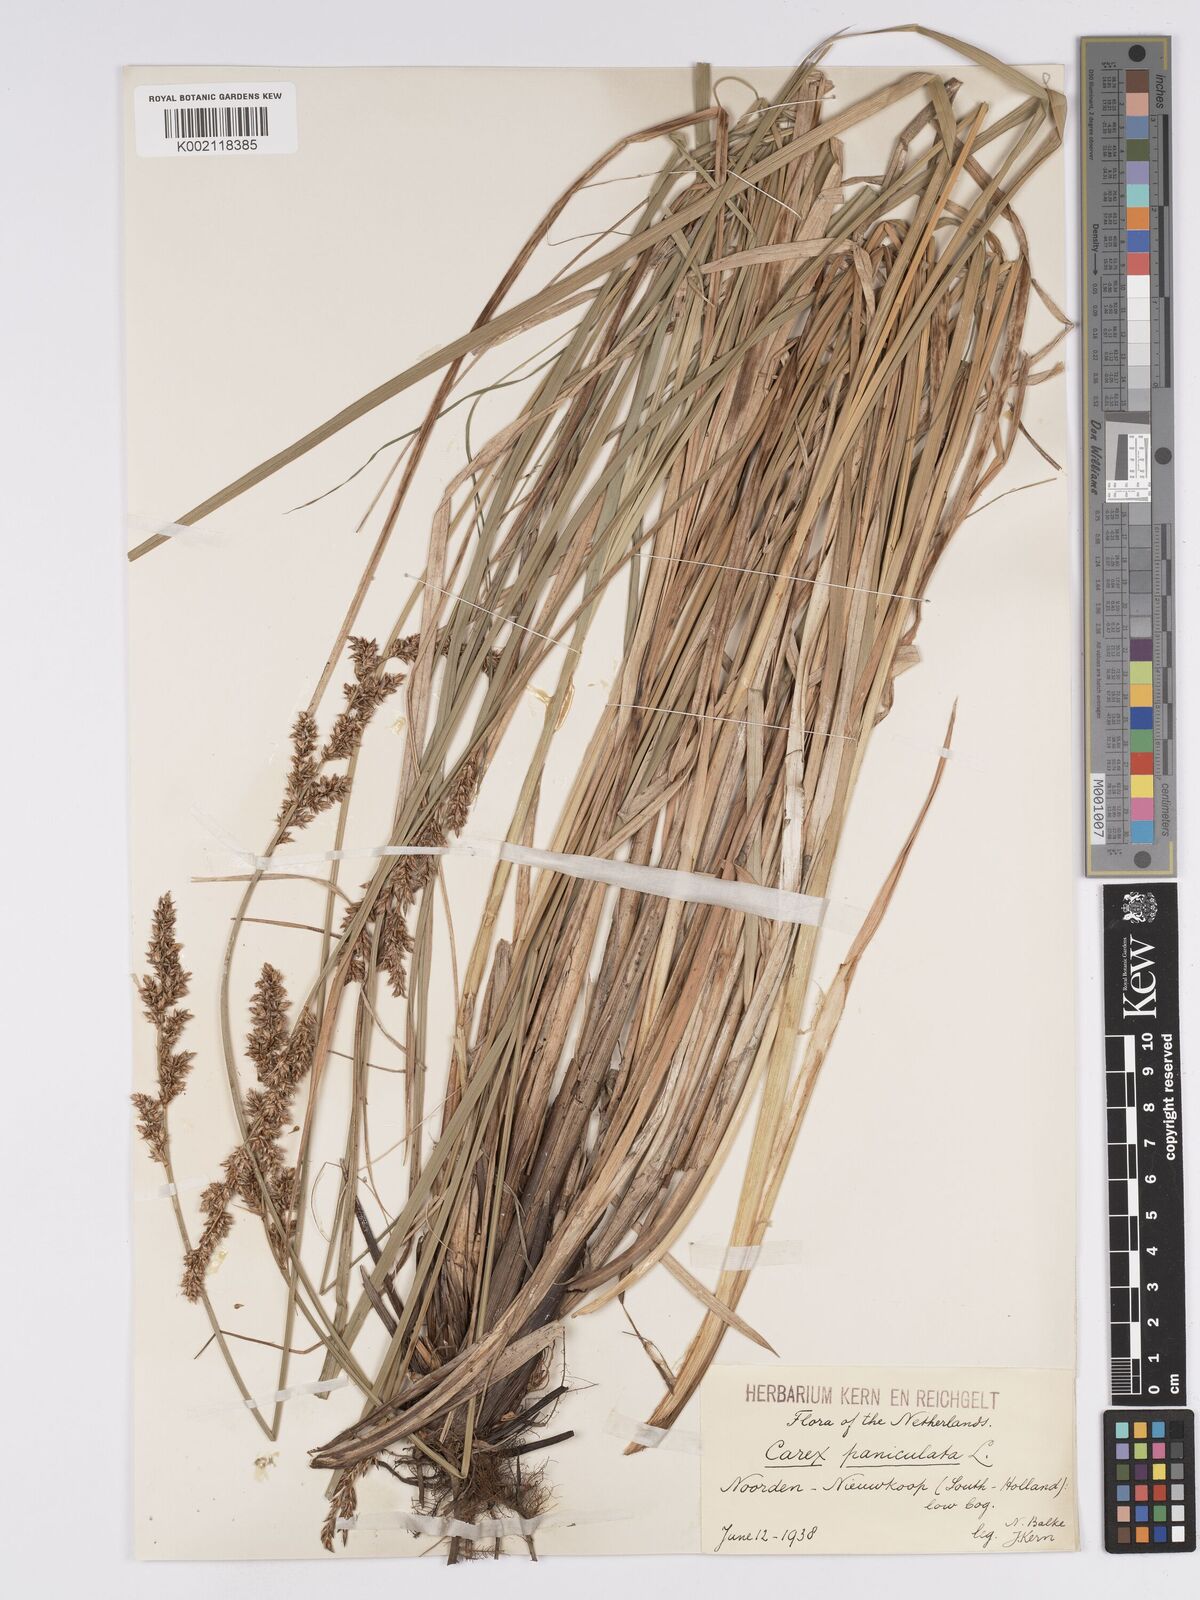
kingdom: Plantae
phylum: Tracheophyta
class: Liliopsida
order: Poales
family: Cyperaceae
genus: Carex
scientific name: Carex paniculata
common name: Greater tussock-sedge
